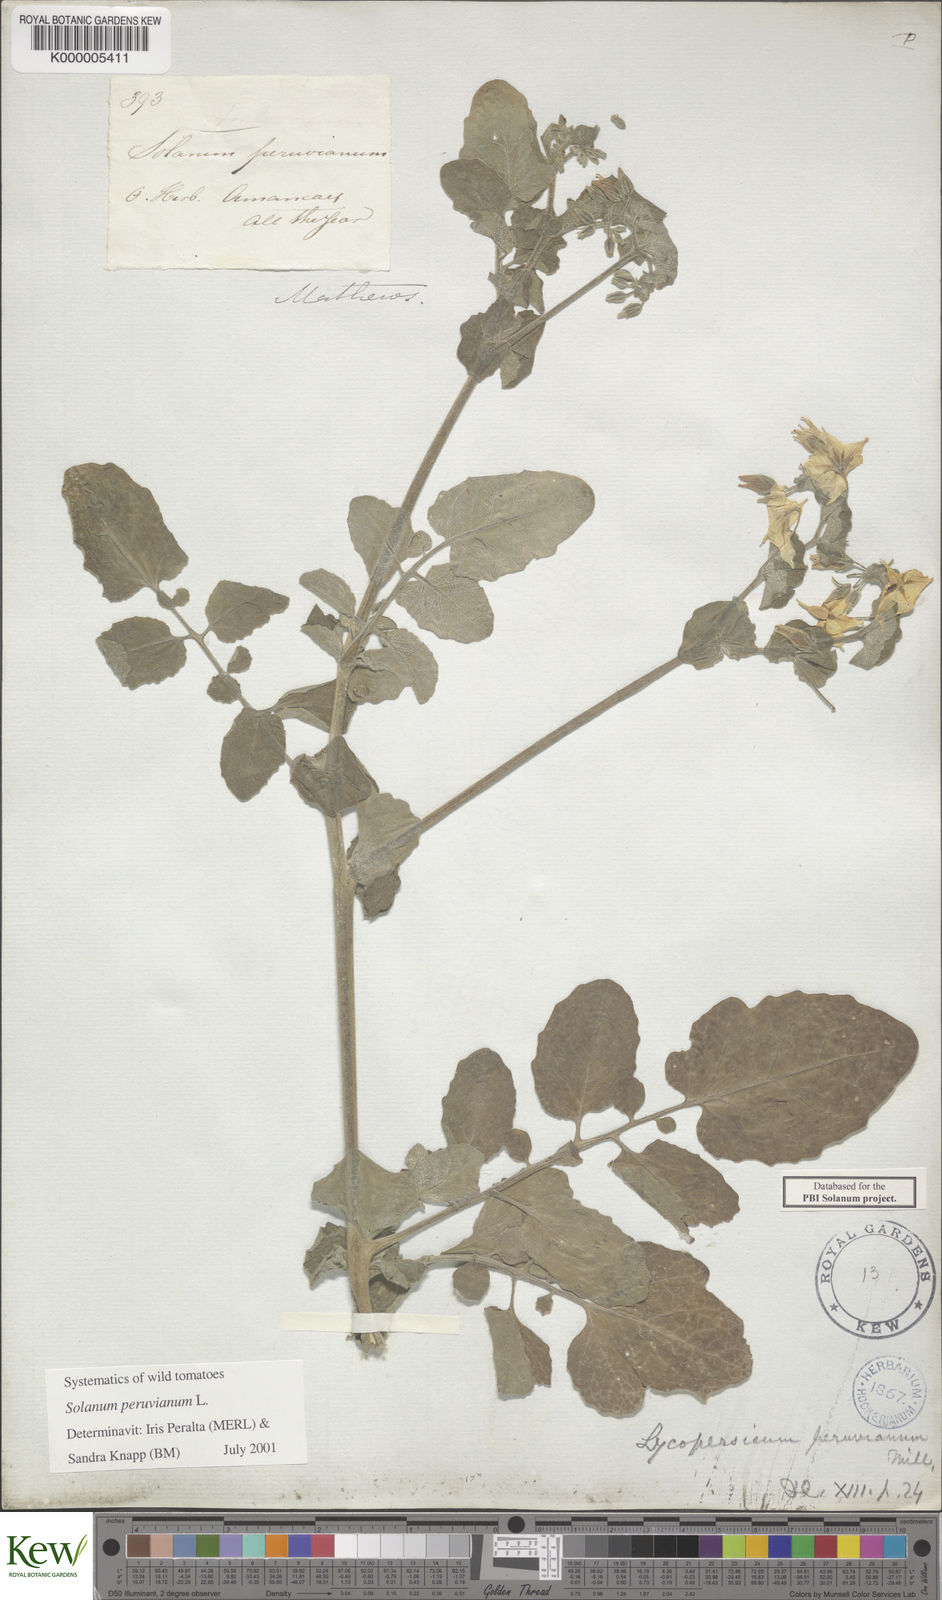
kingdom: Plantae
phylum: Tracheophyta
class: Magnoliopsida
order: Solanales
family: Solanaceae
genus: Solanum
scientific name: Solanum peruvianum
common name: Peruvian nightshade
